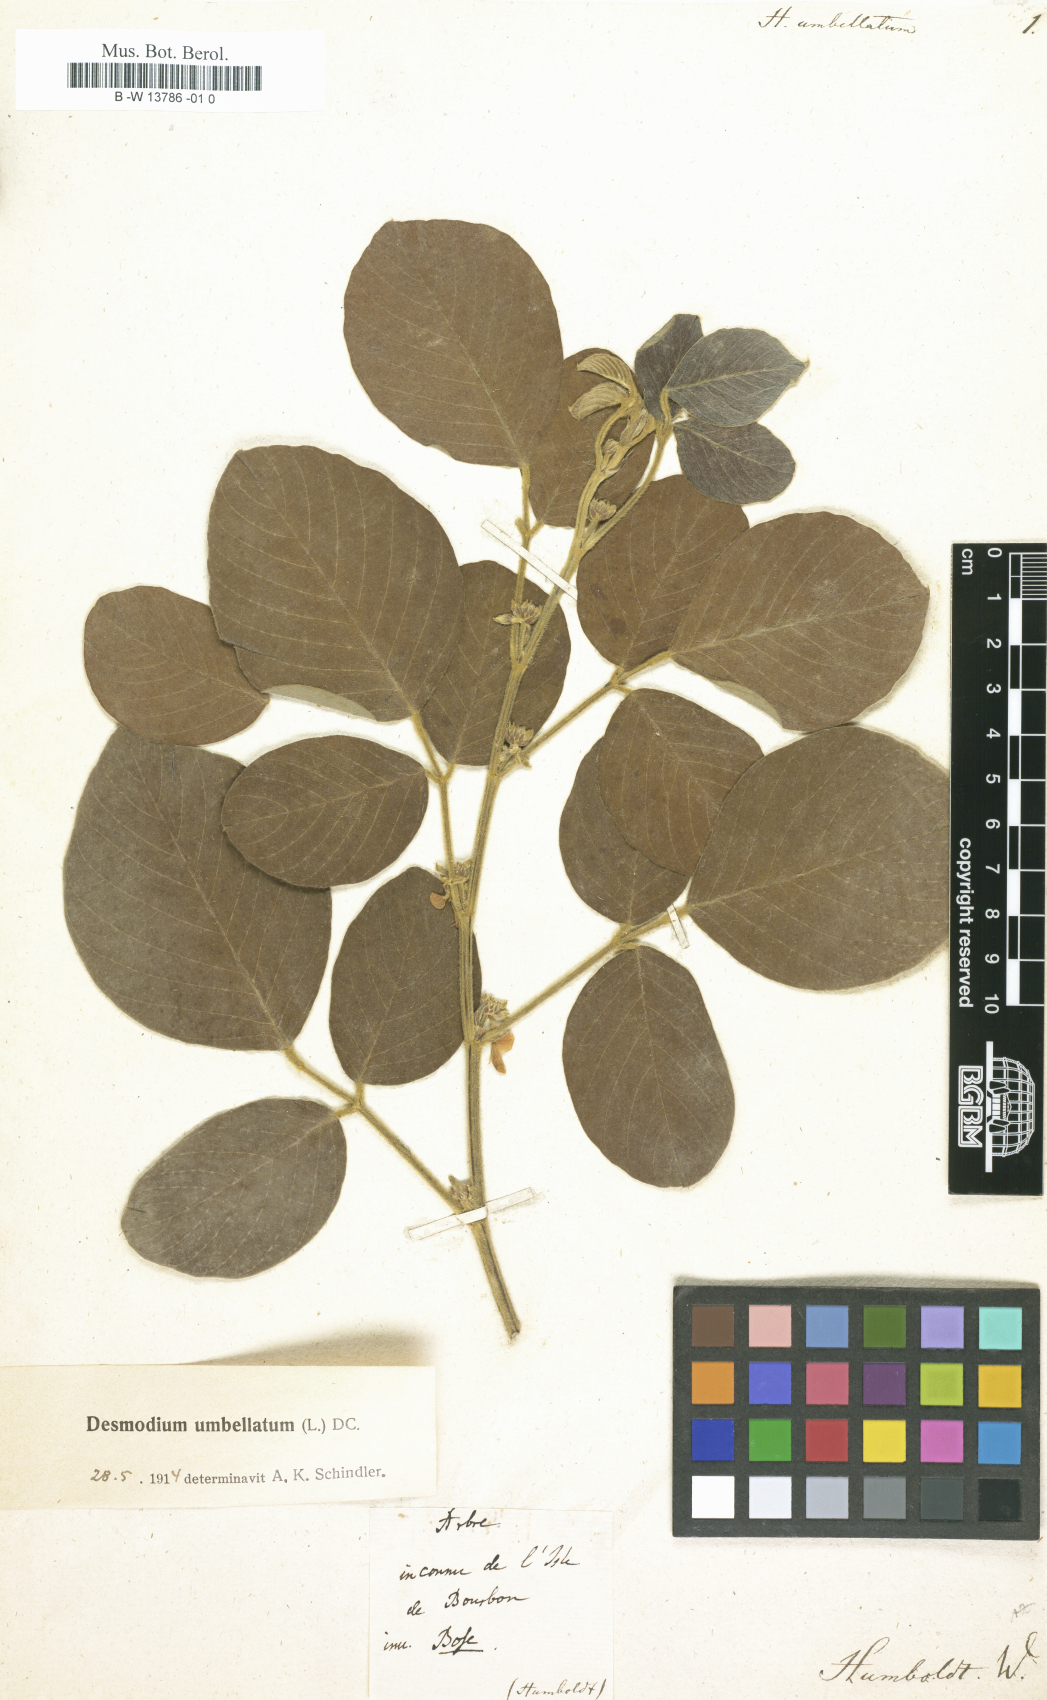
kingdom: Plantae
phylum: Tracheophyta
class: Magnoliopsida
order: Fabales
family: Fabaceae
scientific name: Fabaceae
